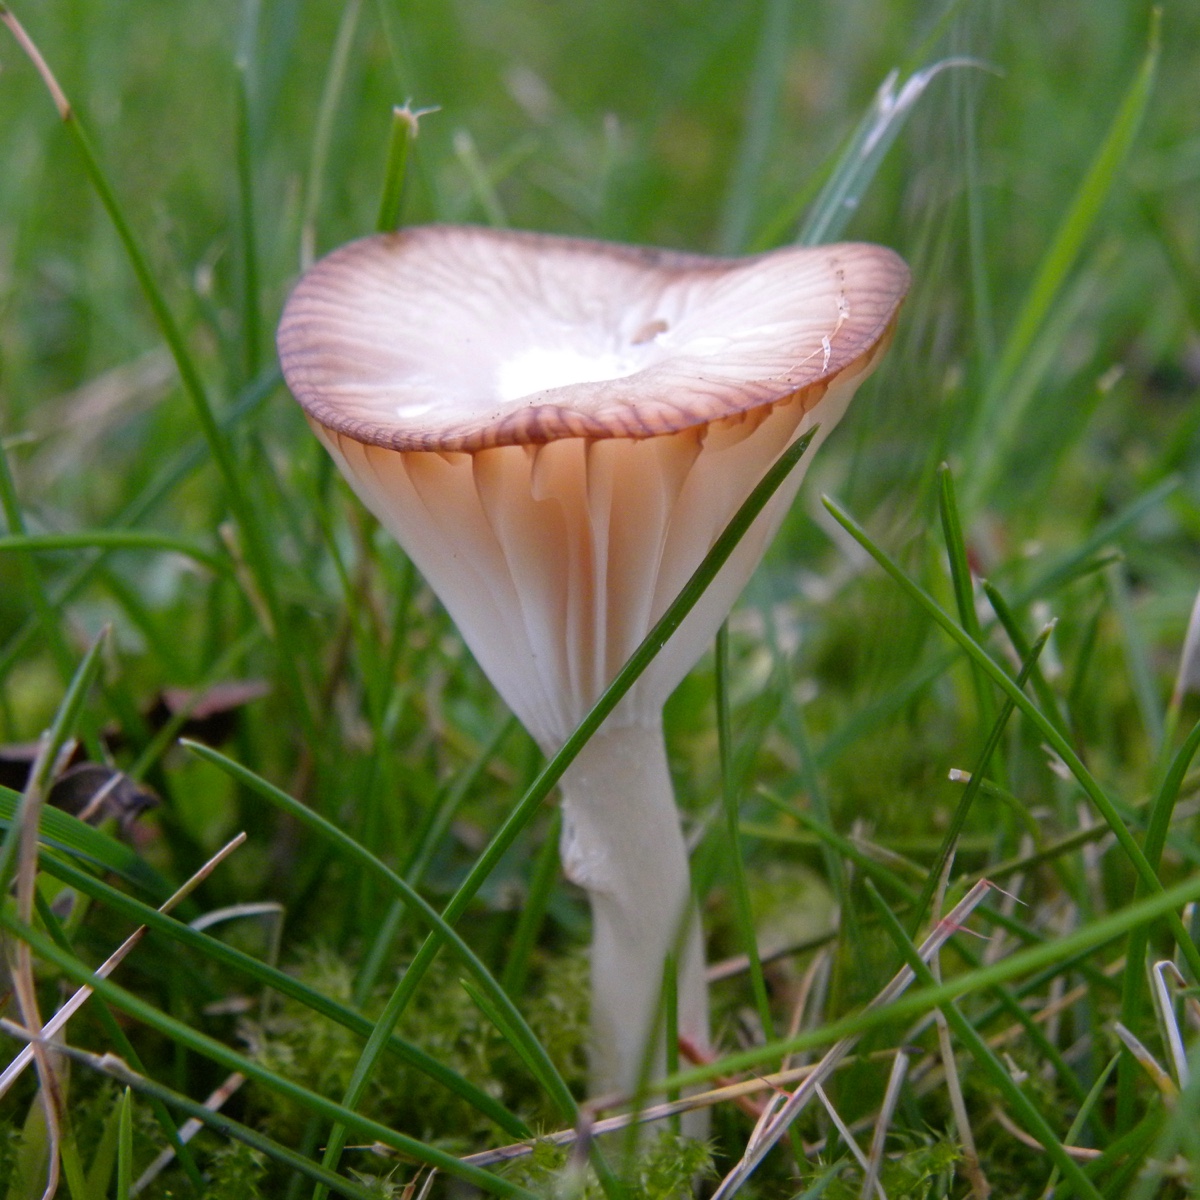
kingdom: Fungi
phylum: Basidiomycota
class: Agaricomycetes
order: Agaricales
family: Hygrophoraceae
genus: Cuphophyllus
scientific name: Cuphophyllus virgineus
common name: snehvid vokshat
